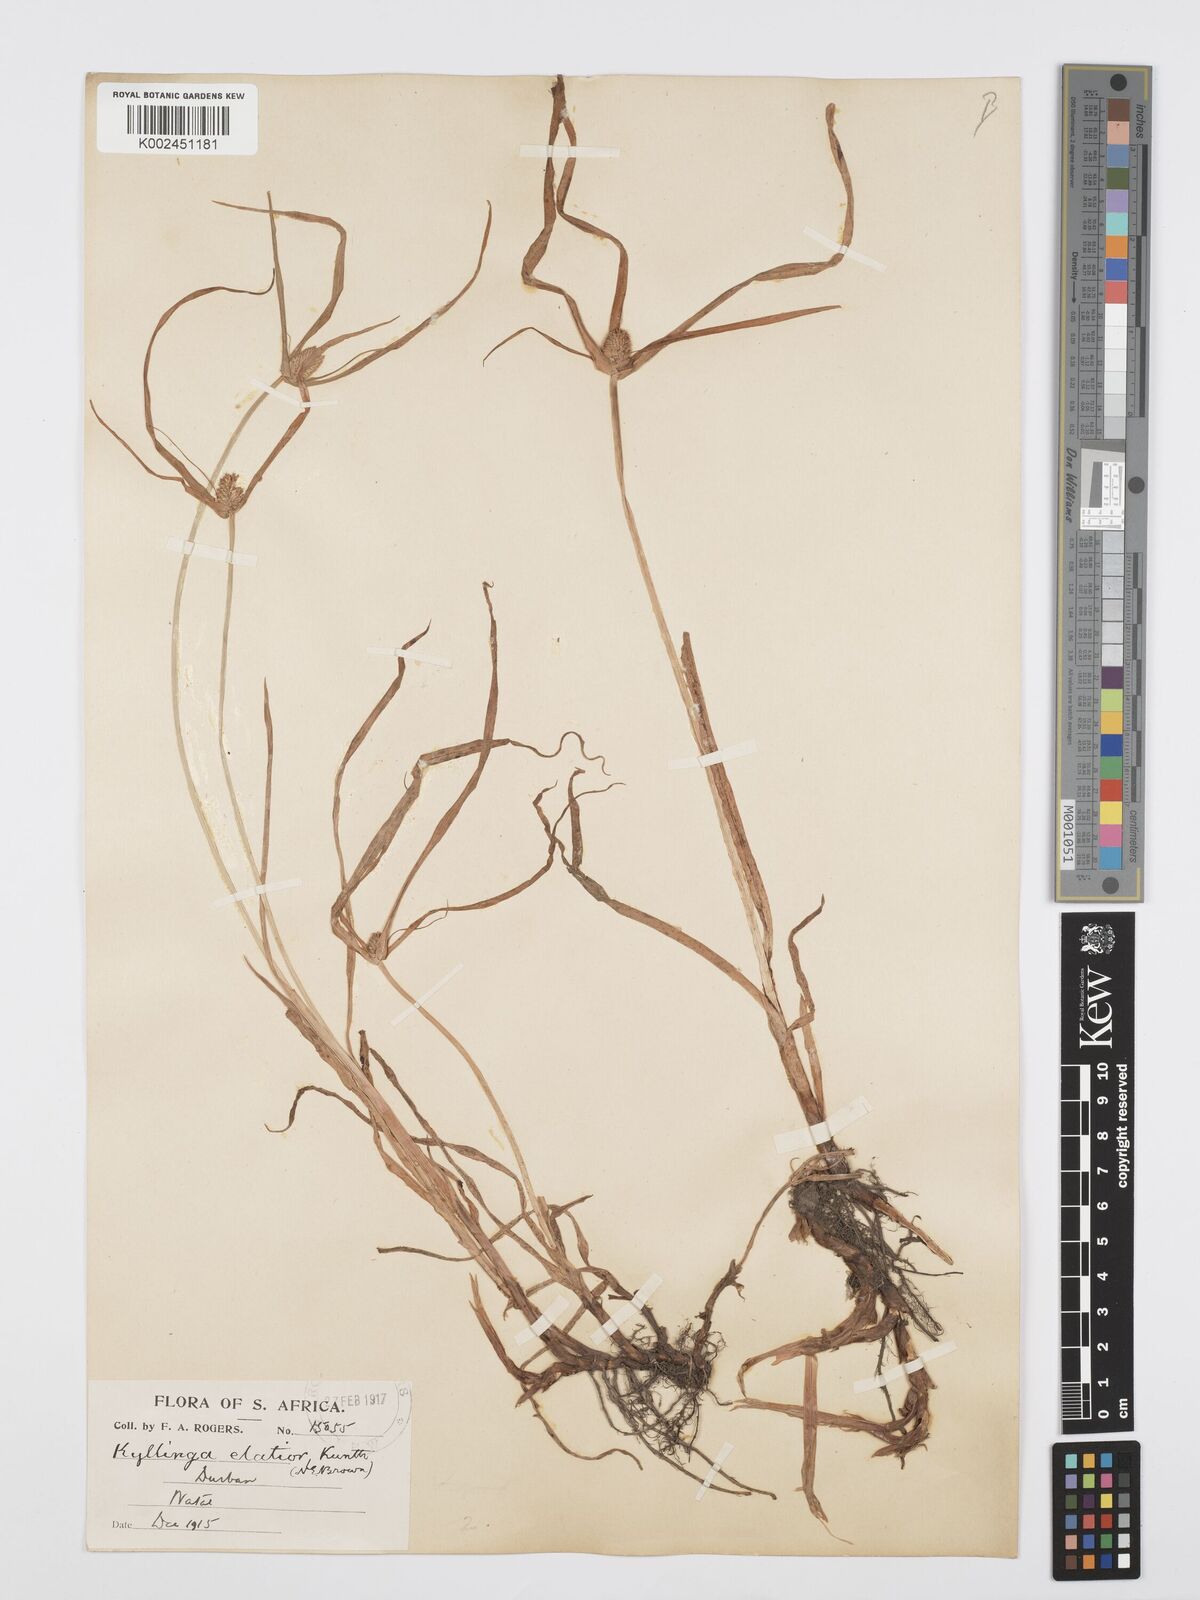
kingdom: Plantae
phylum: Tracheophyta
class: Liliopsida
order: Poales
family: Cyperaceae
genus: Cyperus
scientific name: Cyperus
